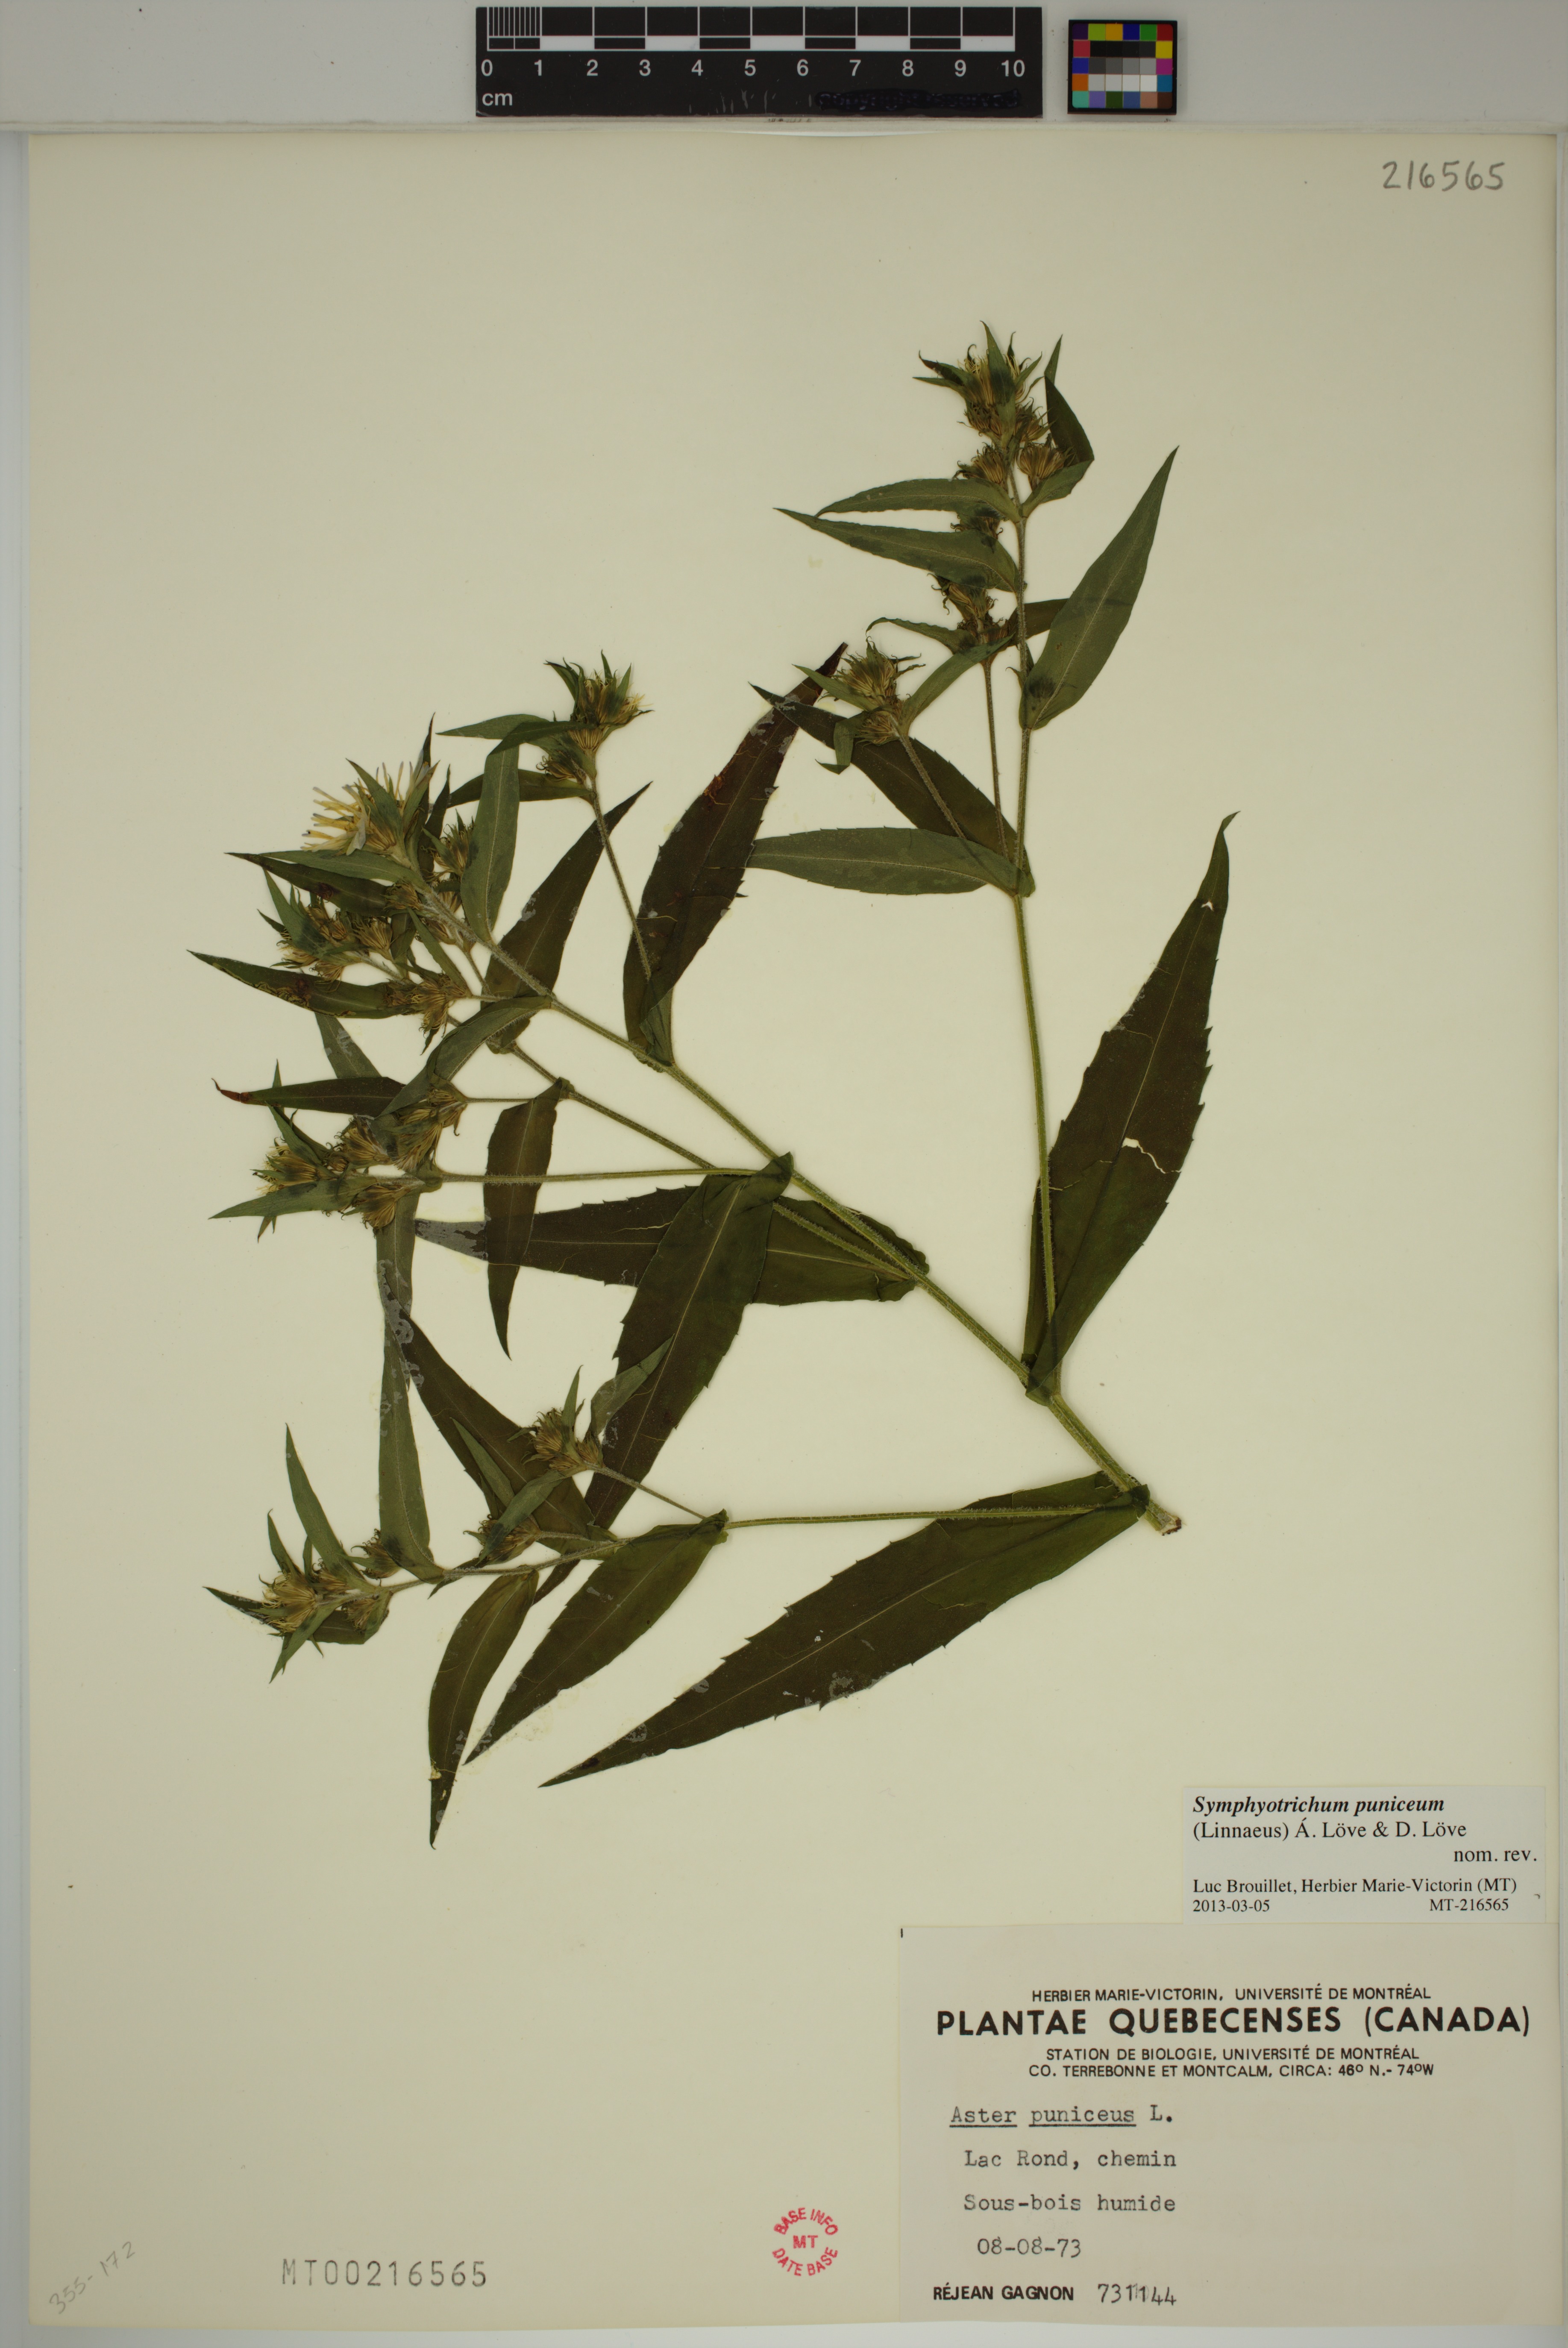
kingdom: Plantae
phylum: Tracheophyta
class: Magnoliopsida
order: Asterales
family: Asteraceae
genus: Symphyotrichum
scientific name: Symphyotrichum puniceum
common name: Bog aster
